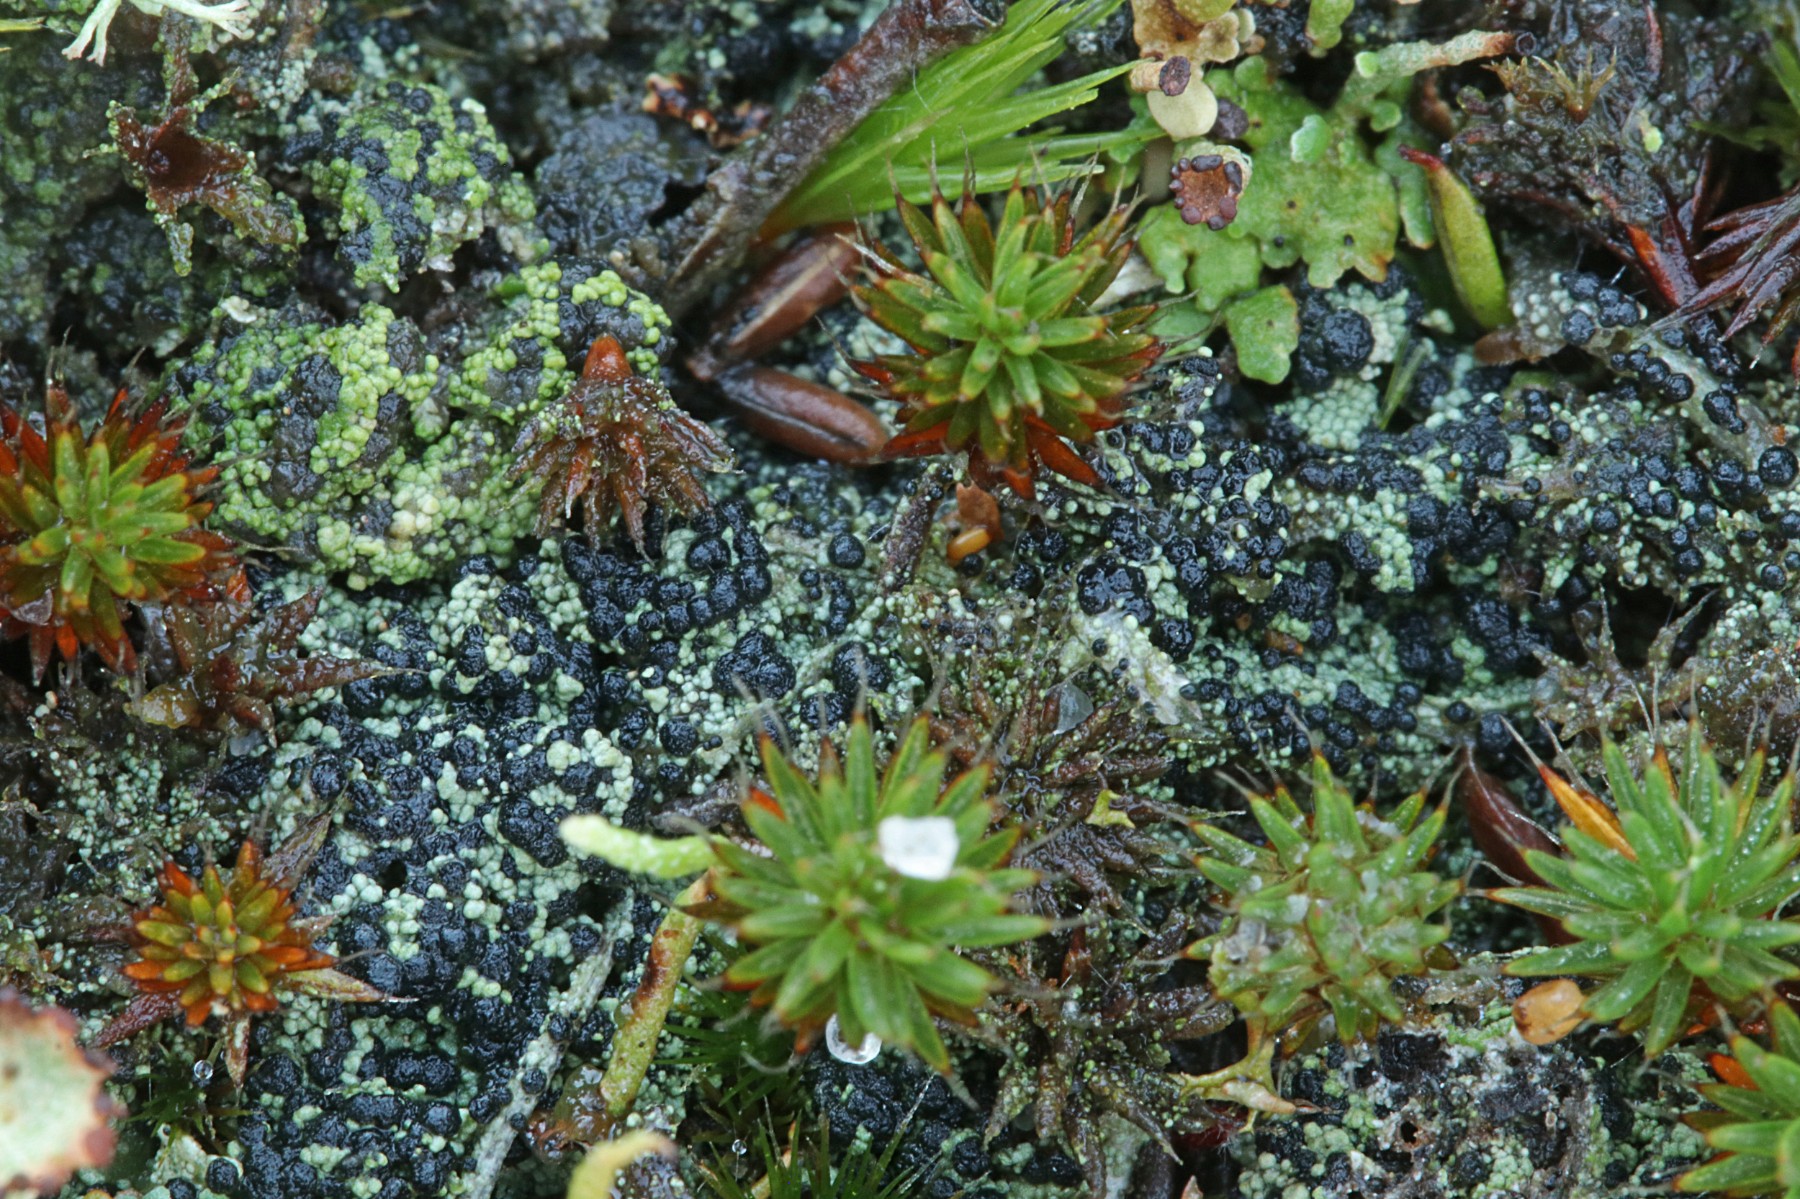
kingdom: Fungi
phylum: Ascomycota
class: Lecanoromycetes
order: Lecanorales
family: Byssolomataceae
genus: Micarea
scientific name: Micarea lignaria
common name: tørve-knaplav
